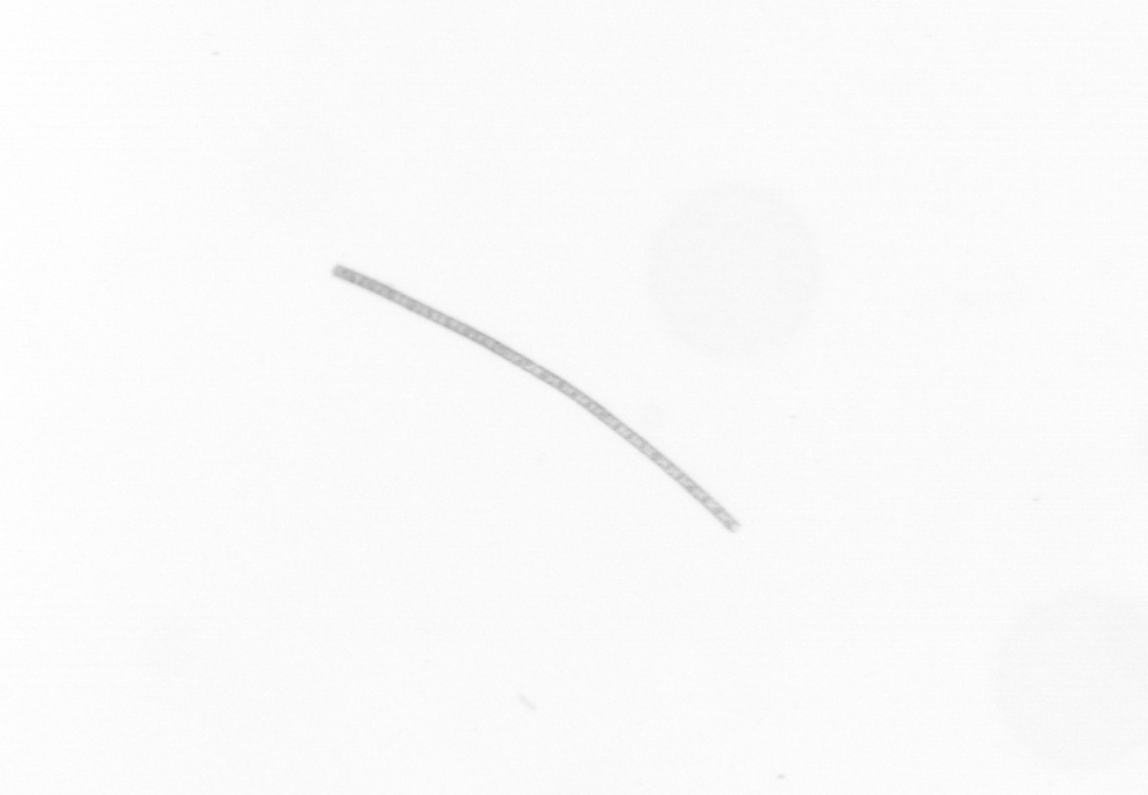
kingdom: Chromista
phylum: Ochrophyta
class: Bacillariophyceae
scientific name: Bacillariophyceae
